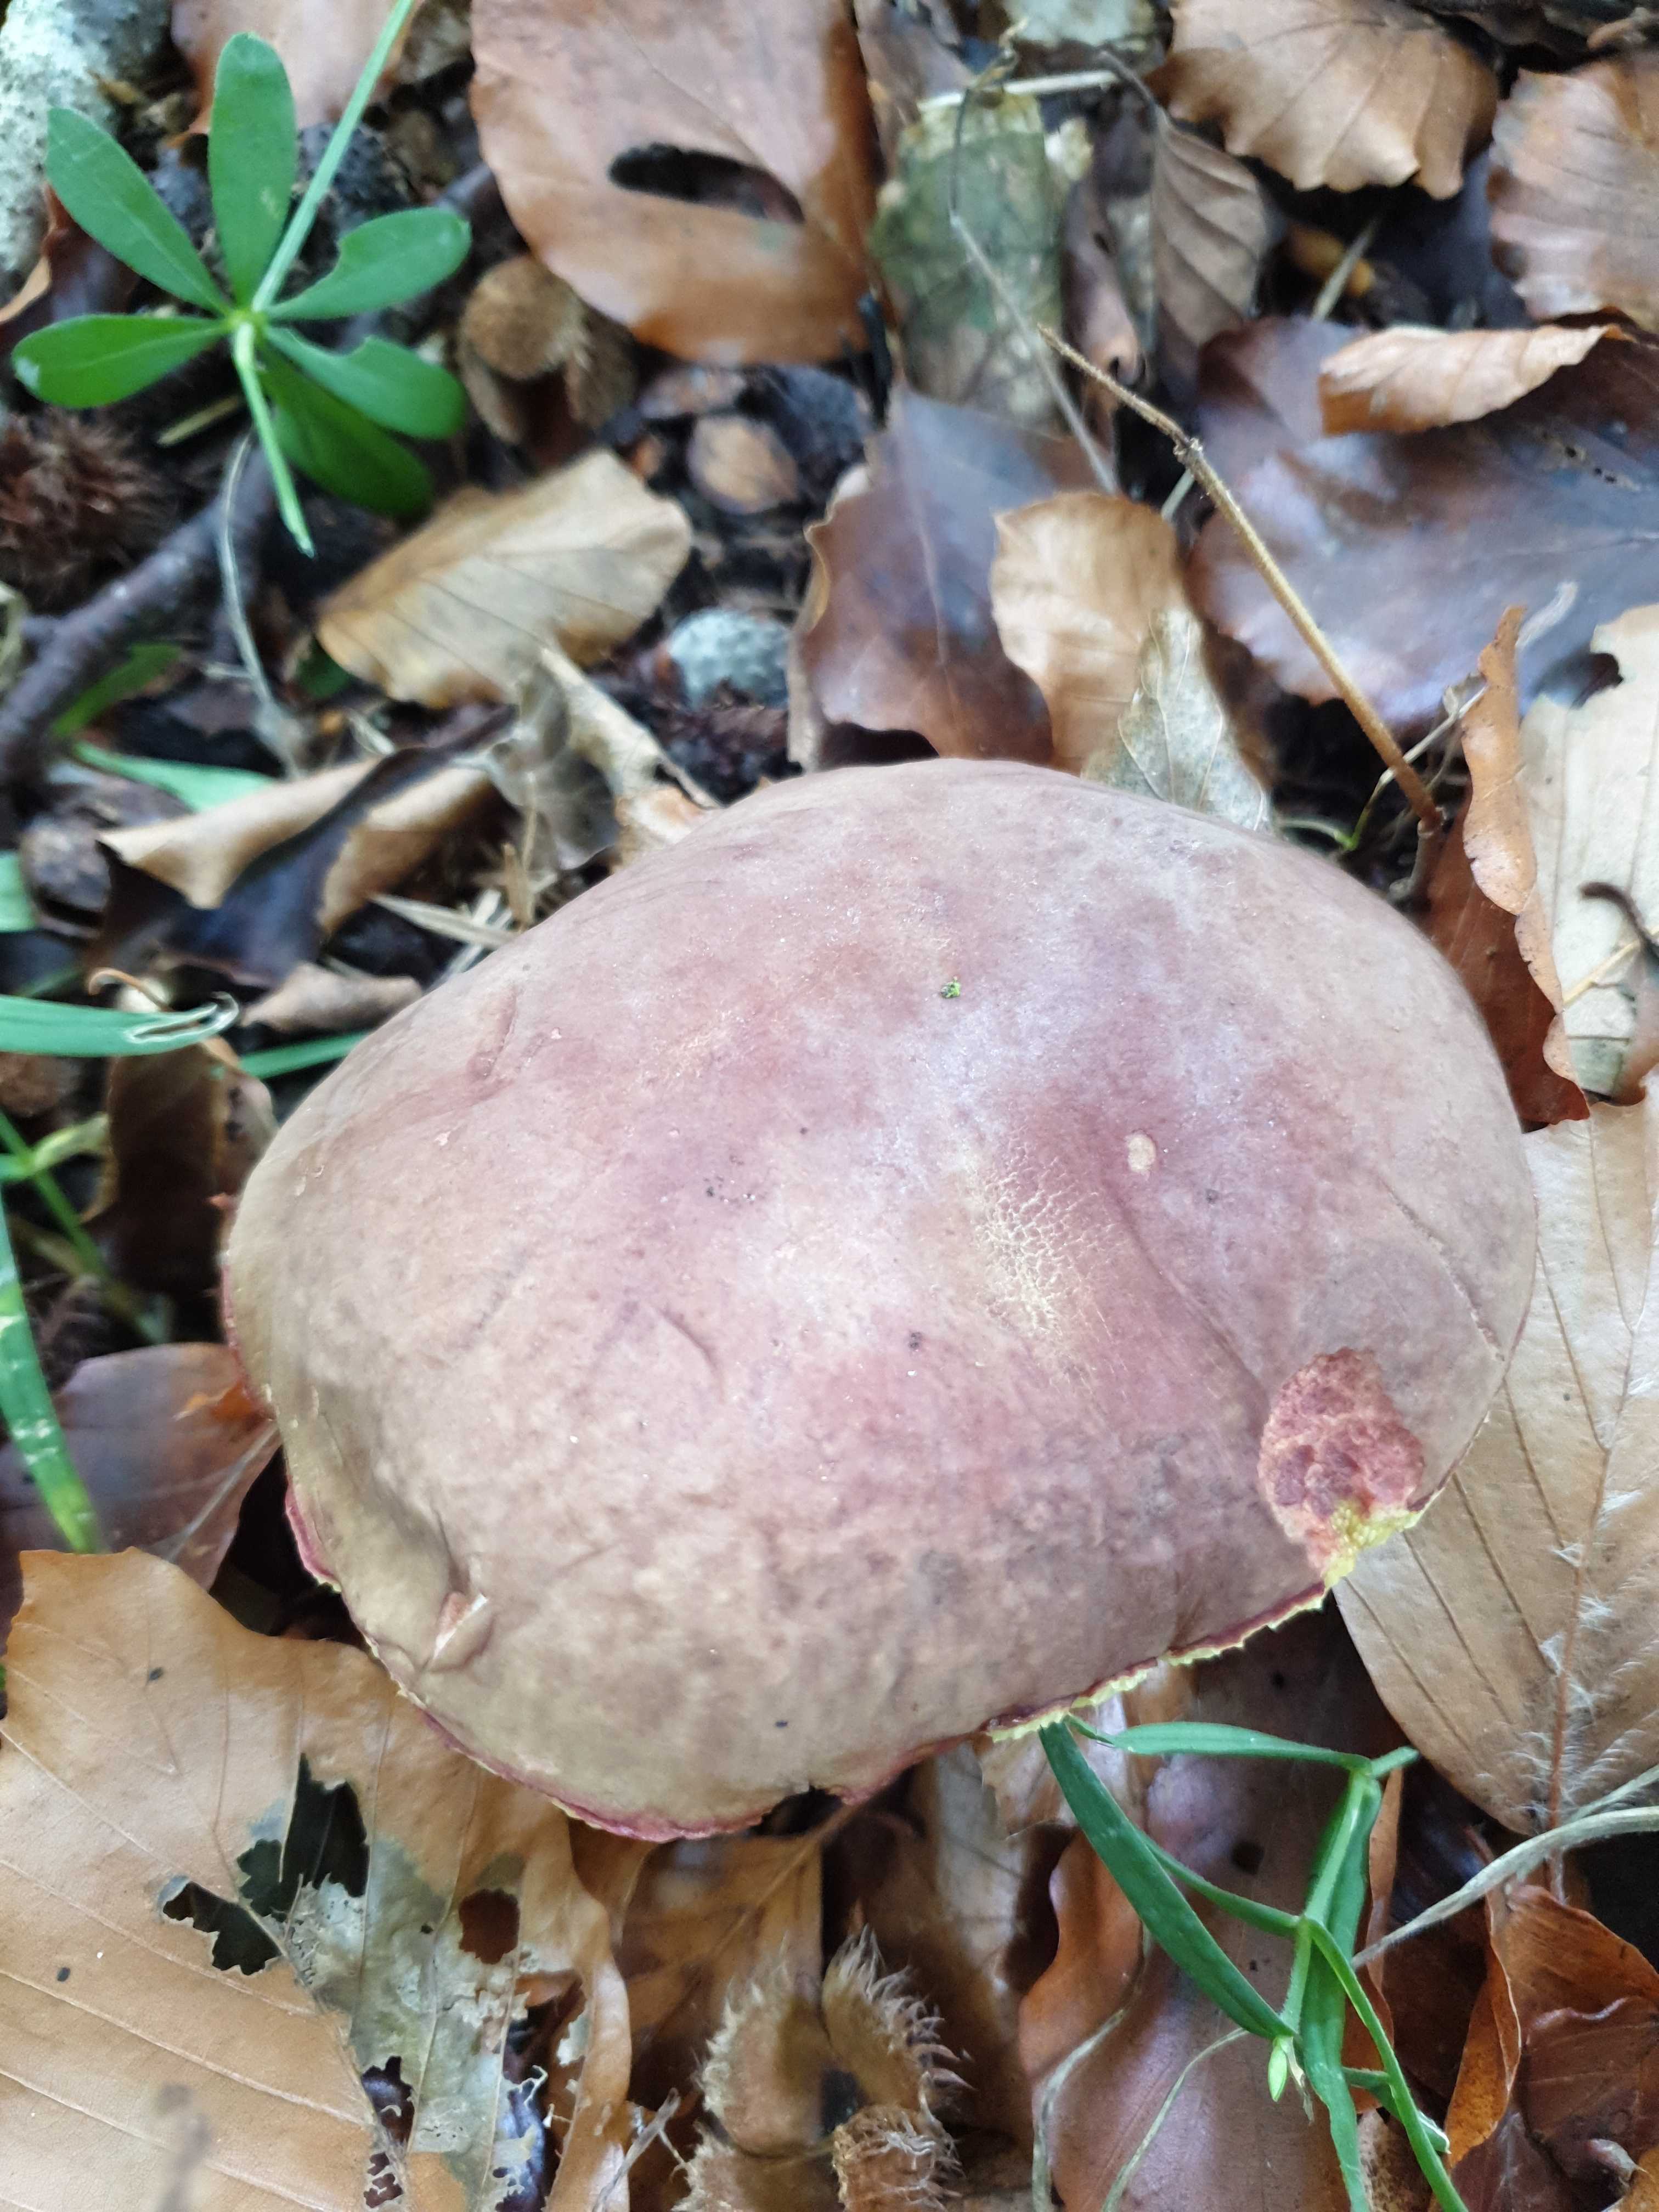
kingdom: Fungi
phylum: Basidiomycota
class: Agaricomycetes
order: Boletales
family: Boletaceae
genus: Xerocomellus
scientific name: Xerocomellus
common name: dværgrørhat
